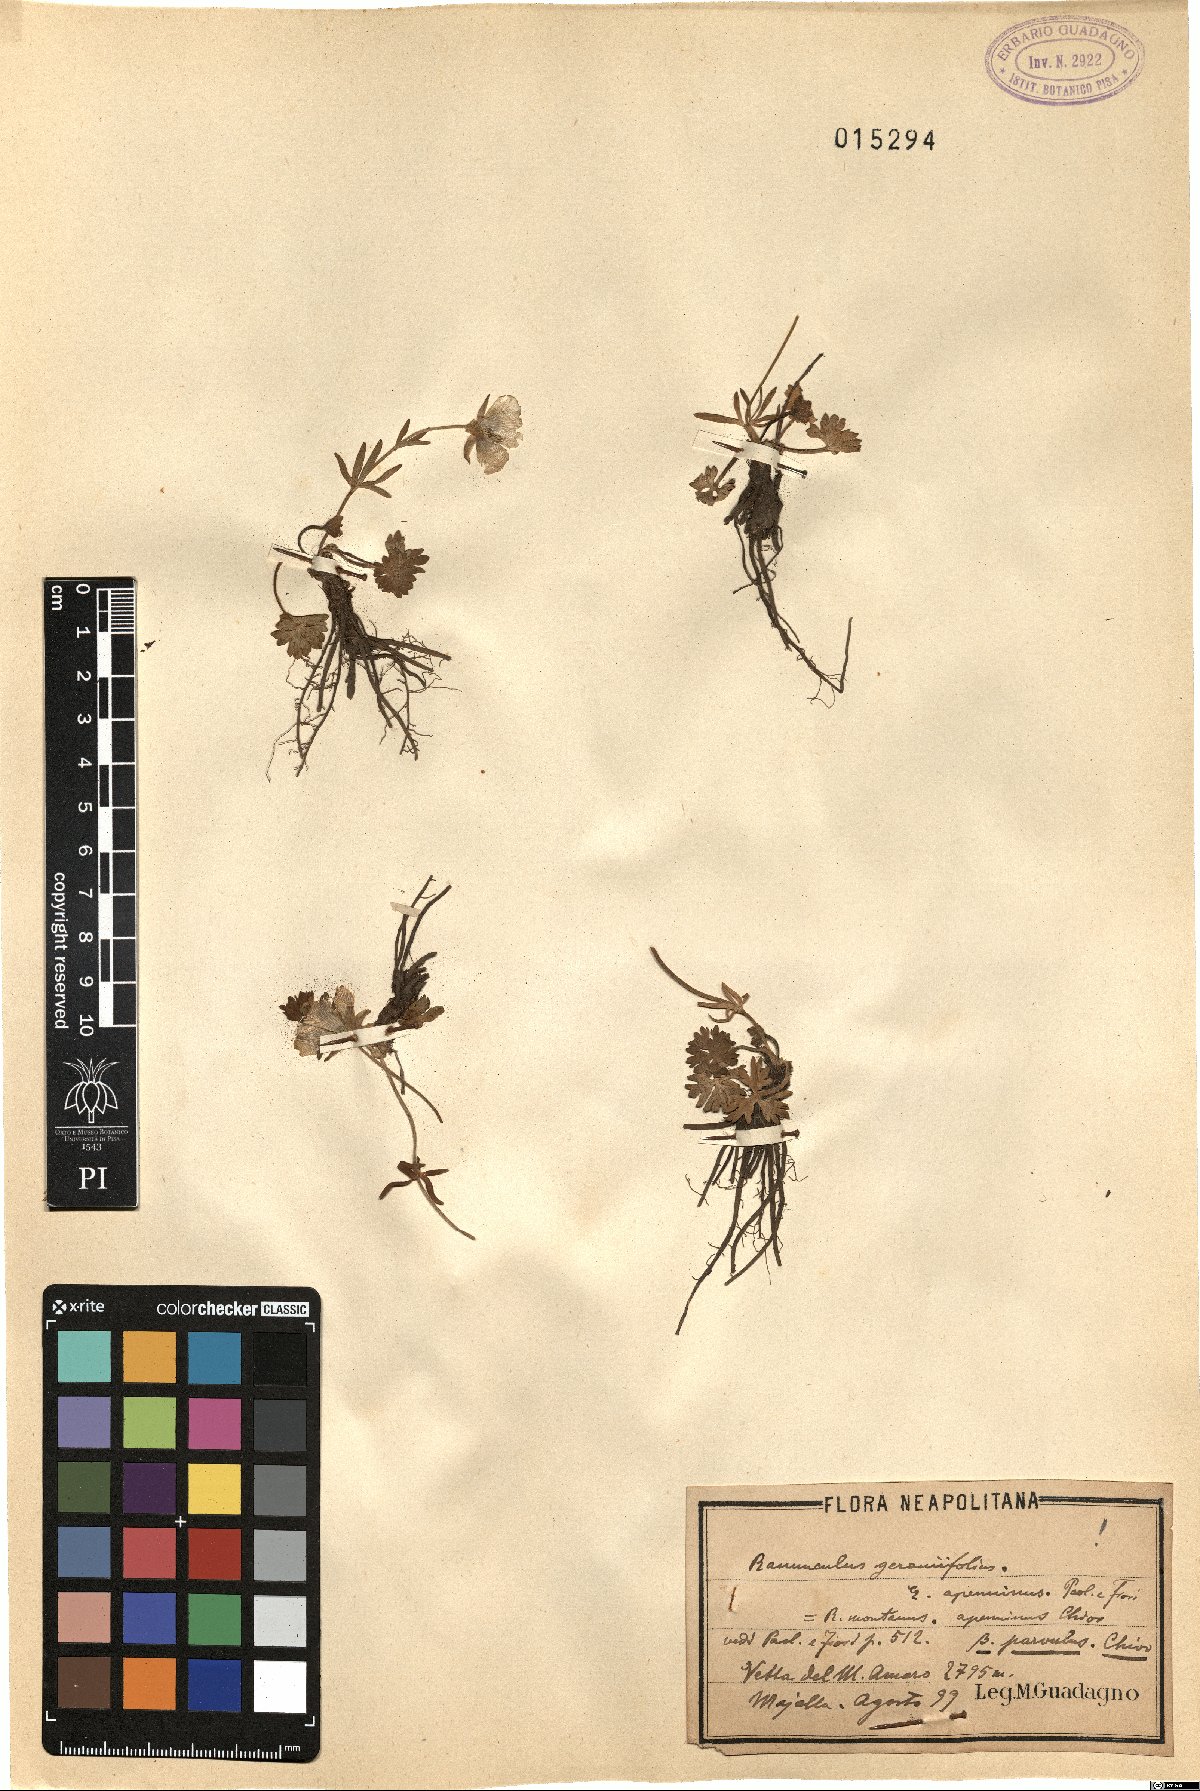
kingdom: Plantae
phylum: Tracheophyta
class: Magnoliopsida
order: Ranunculales
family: Ranunculaceae
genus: Ranunculus
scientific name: Ranunculus apenninus
